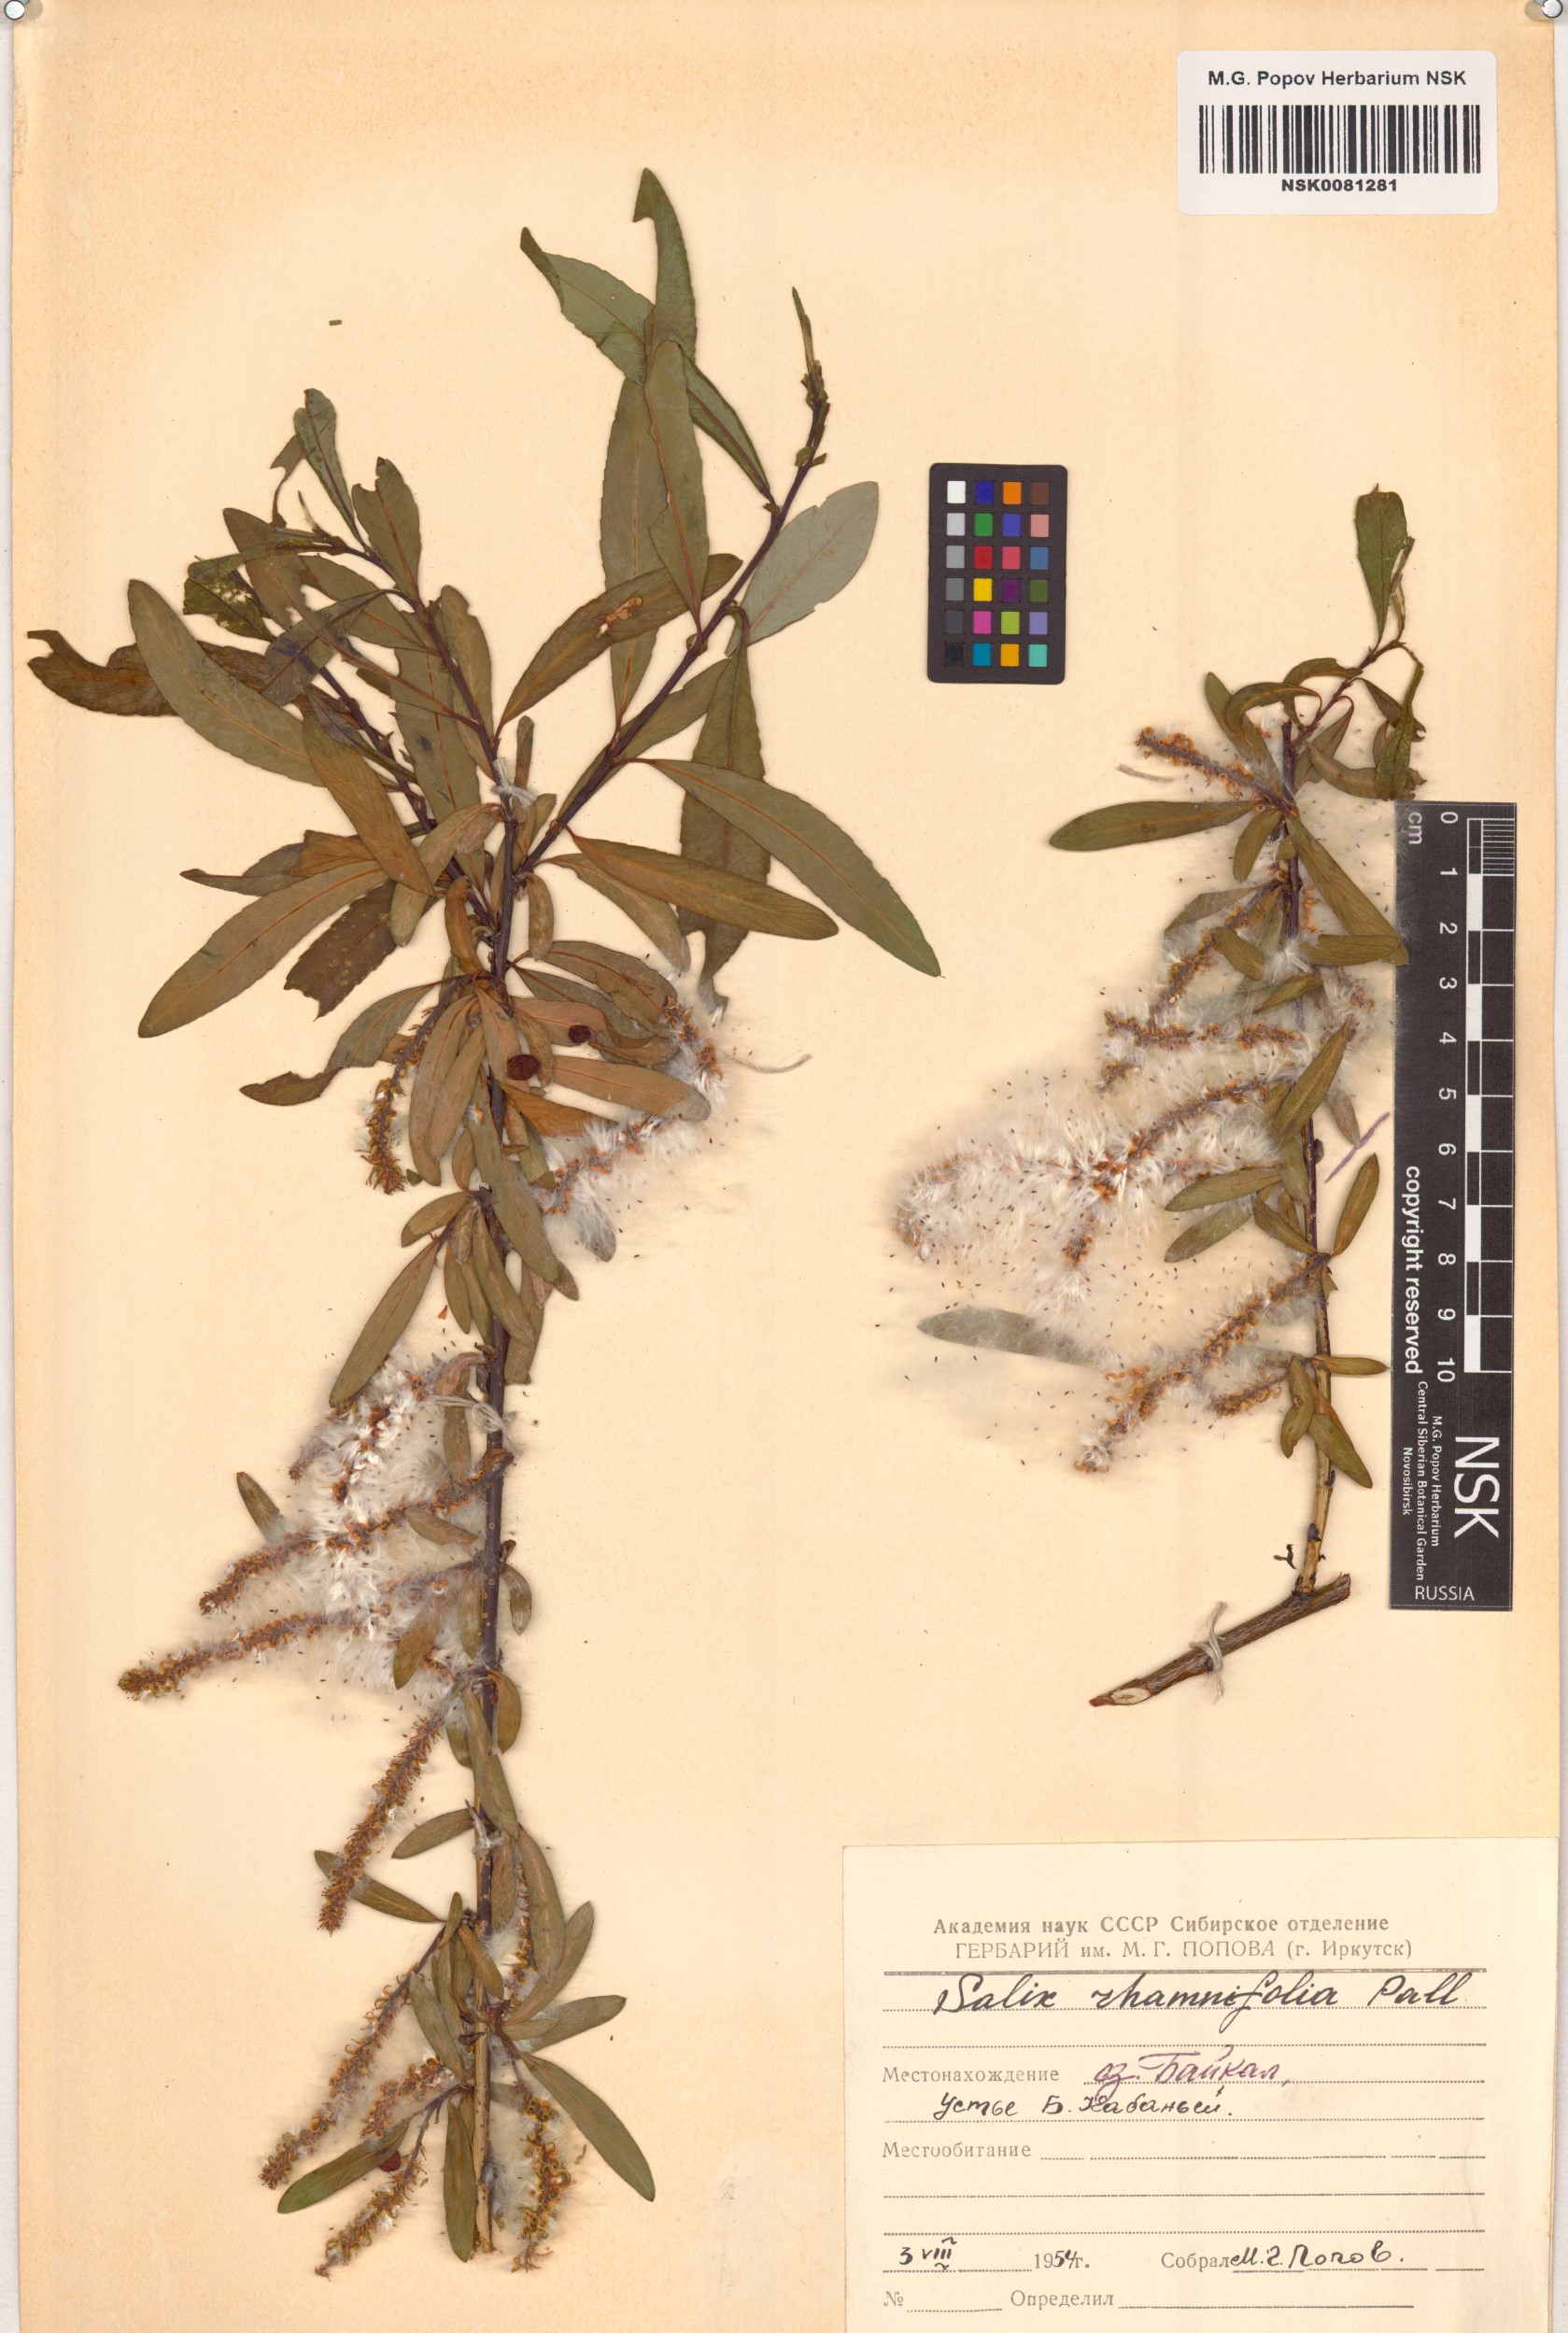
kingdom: Plantae
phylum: Tracheophyta
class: Magnoliopsida
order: Malpighiales
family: Salicaceae
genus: Salix
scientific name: Salix rhamnifolia
